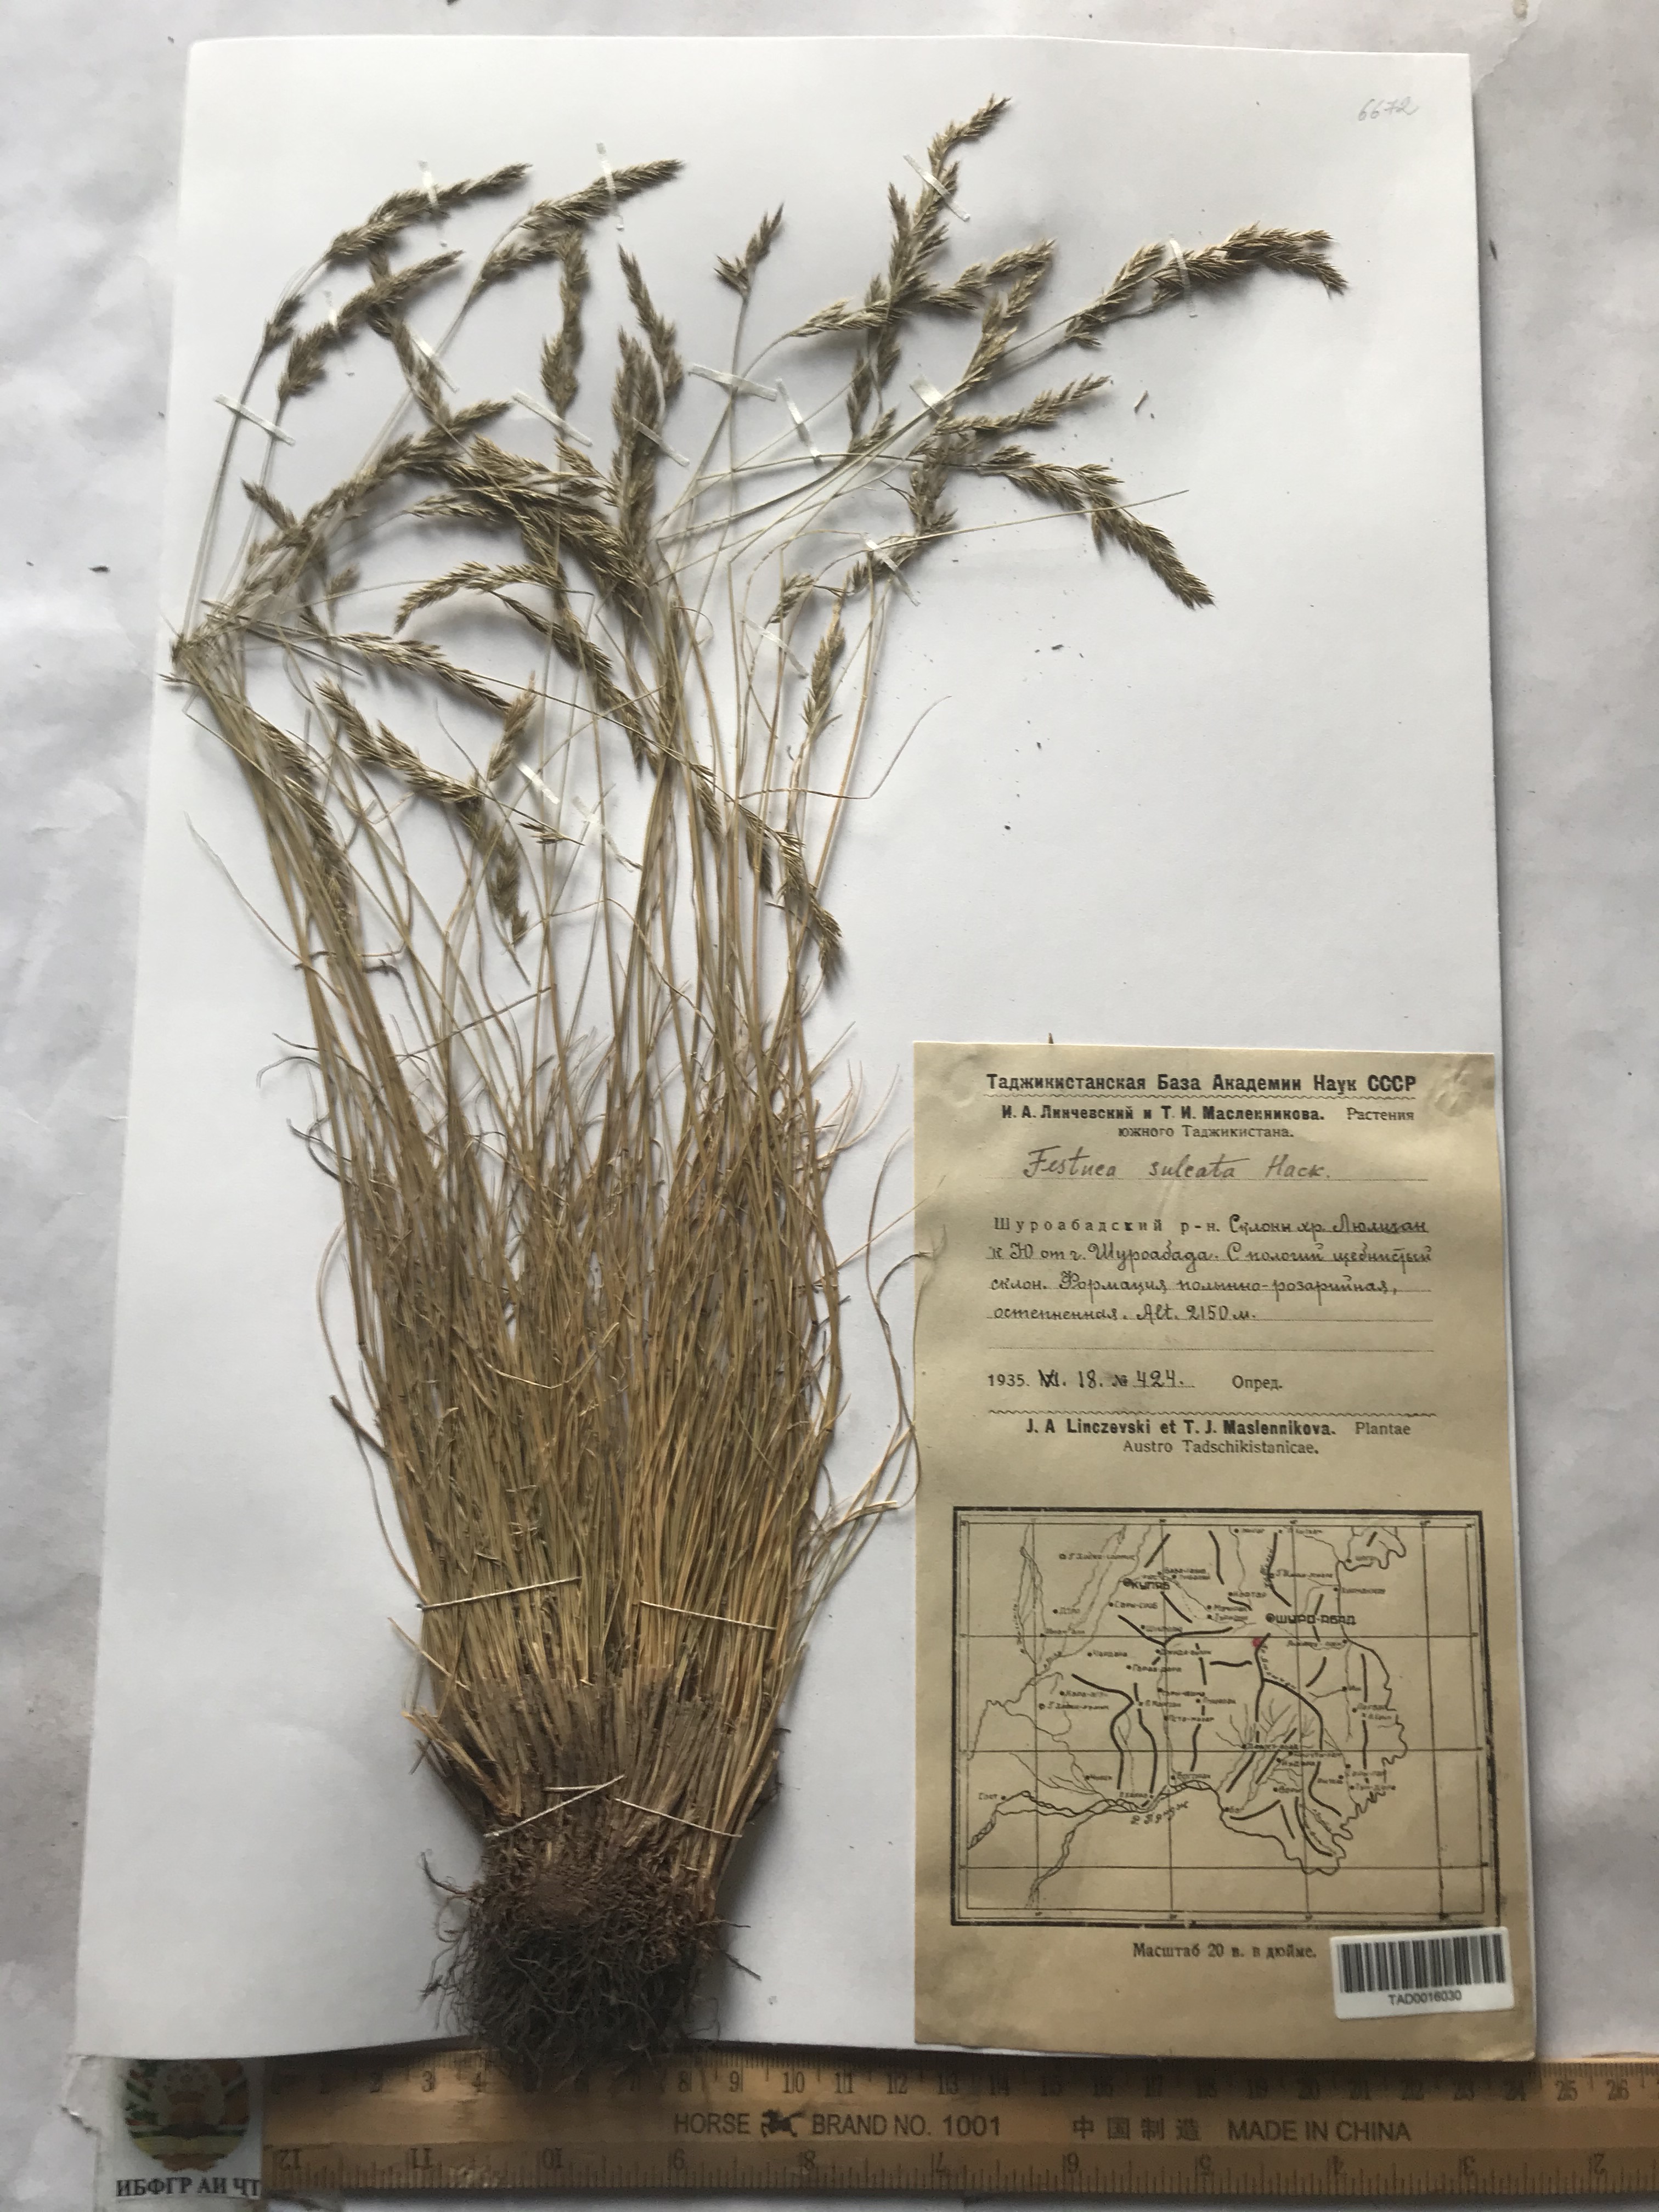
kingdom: Plantae
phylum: Tracheophyta
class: Liliopsida
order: Poales
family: Poaceae
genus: Festuca
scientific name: Festuca sulcata
